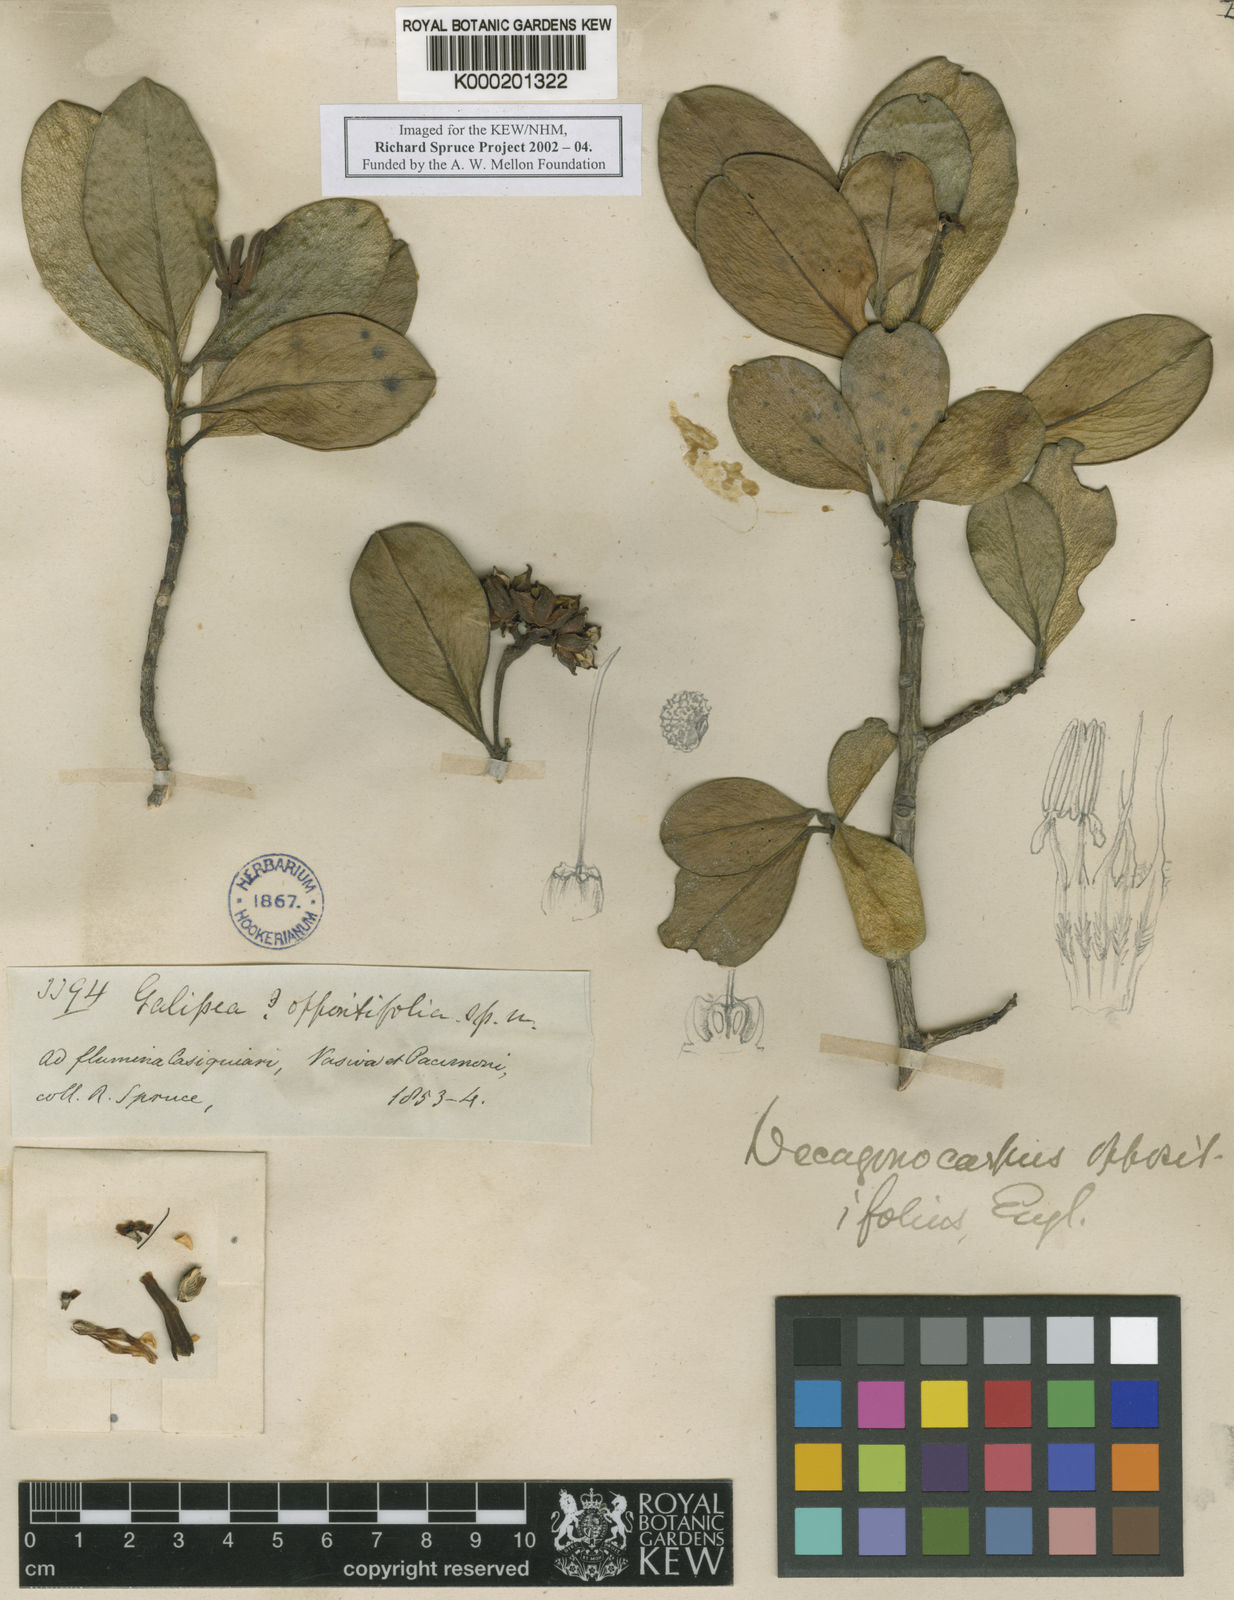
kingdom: Plantae
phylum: Tracheophyta
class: Magnoliopsida
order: Sapindales
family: Rutaceae
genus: Decagonocarpus
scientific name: Decagonocarpus oppositifolius
